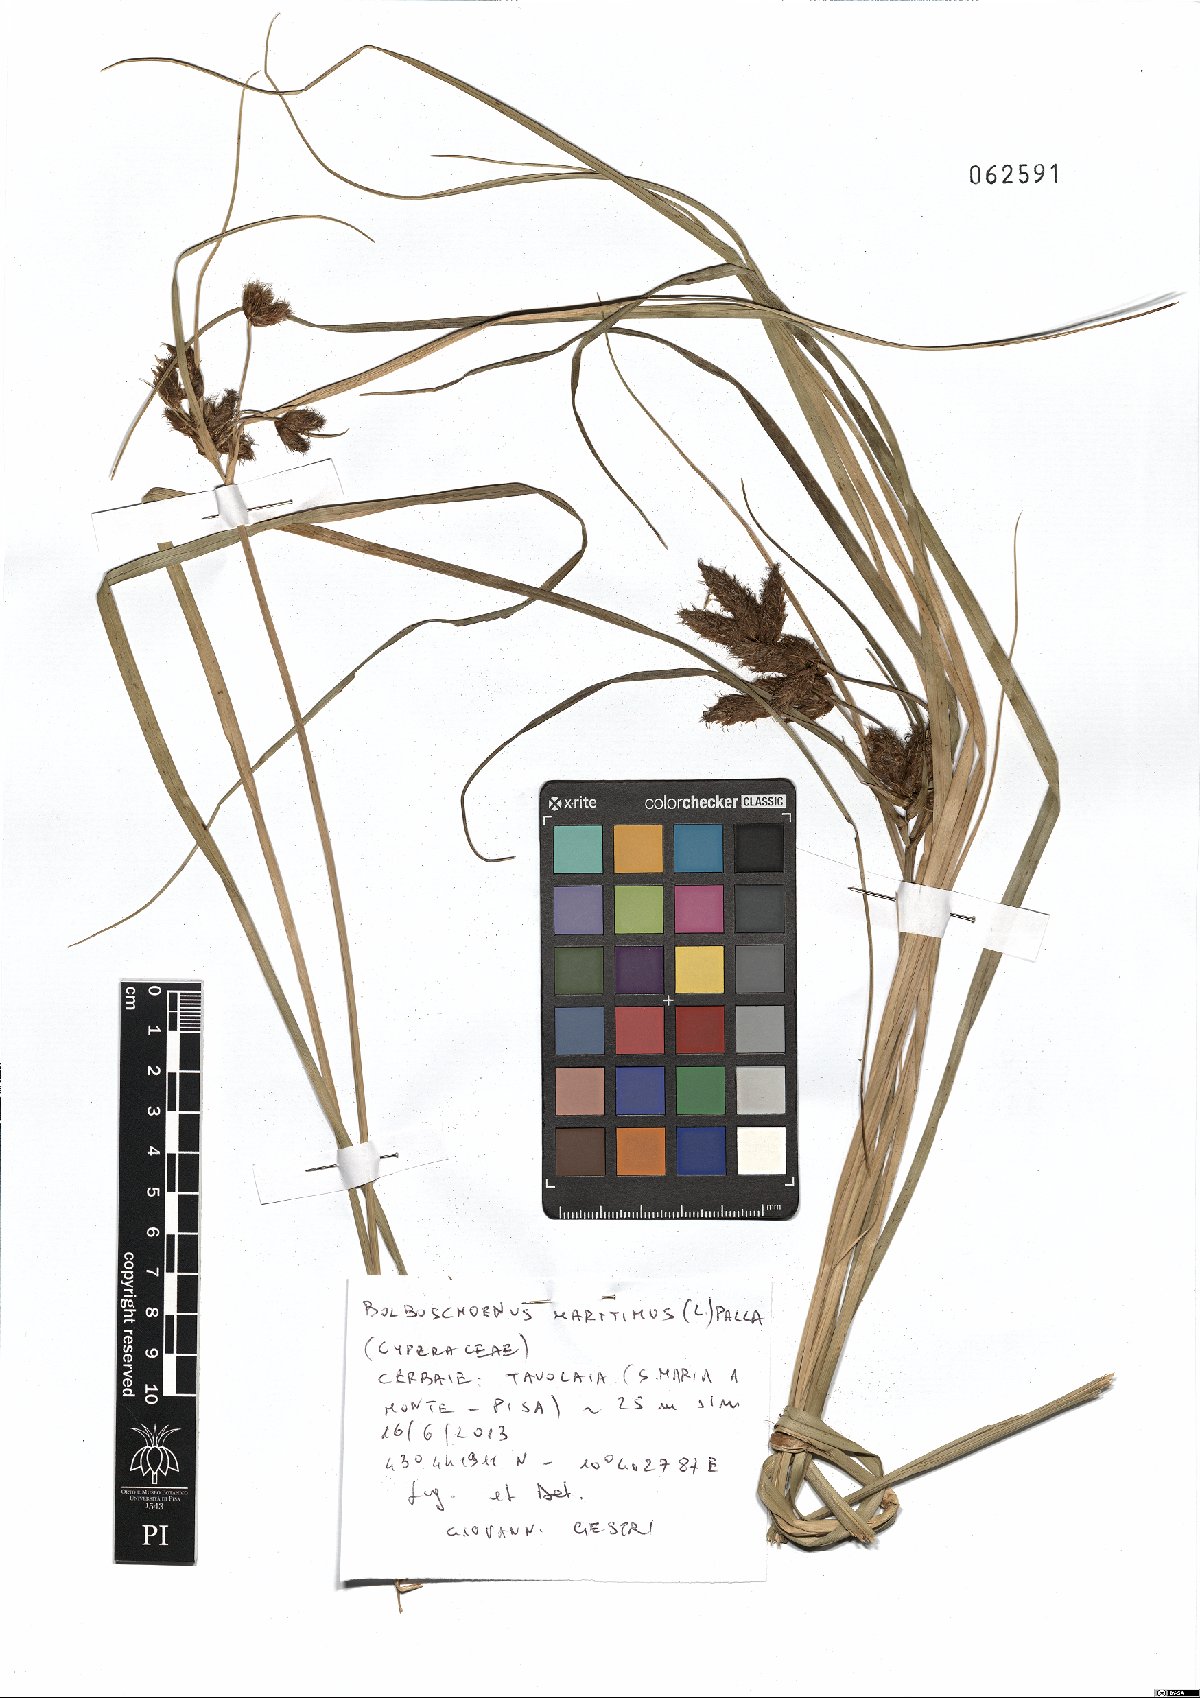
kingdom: Plantae
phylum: Tracheophyta
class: Liliopsida
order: Poales
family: Cyperaceae
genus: Bolboschoenus
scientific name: Bolboschoenus maritimus
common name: Sea club-rush
